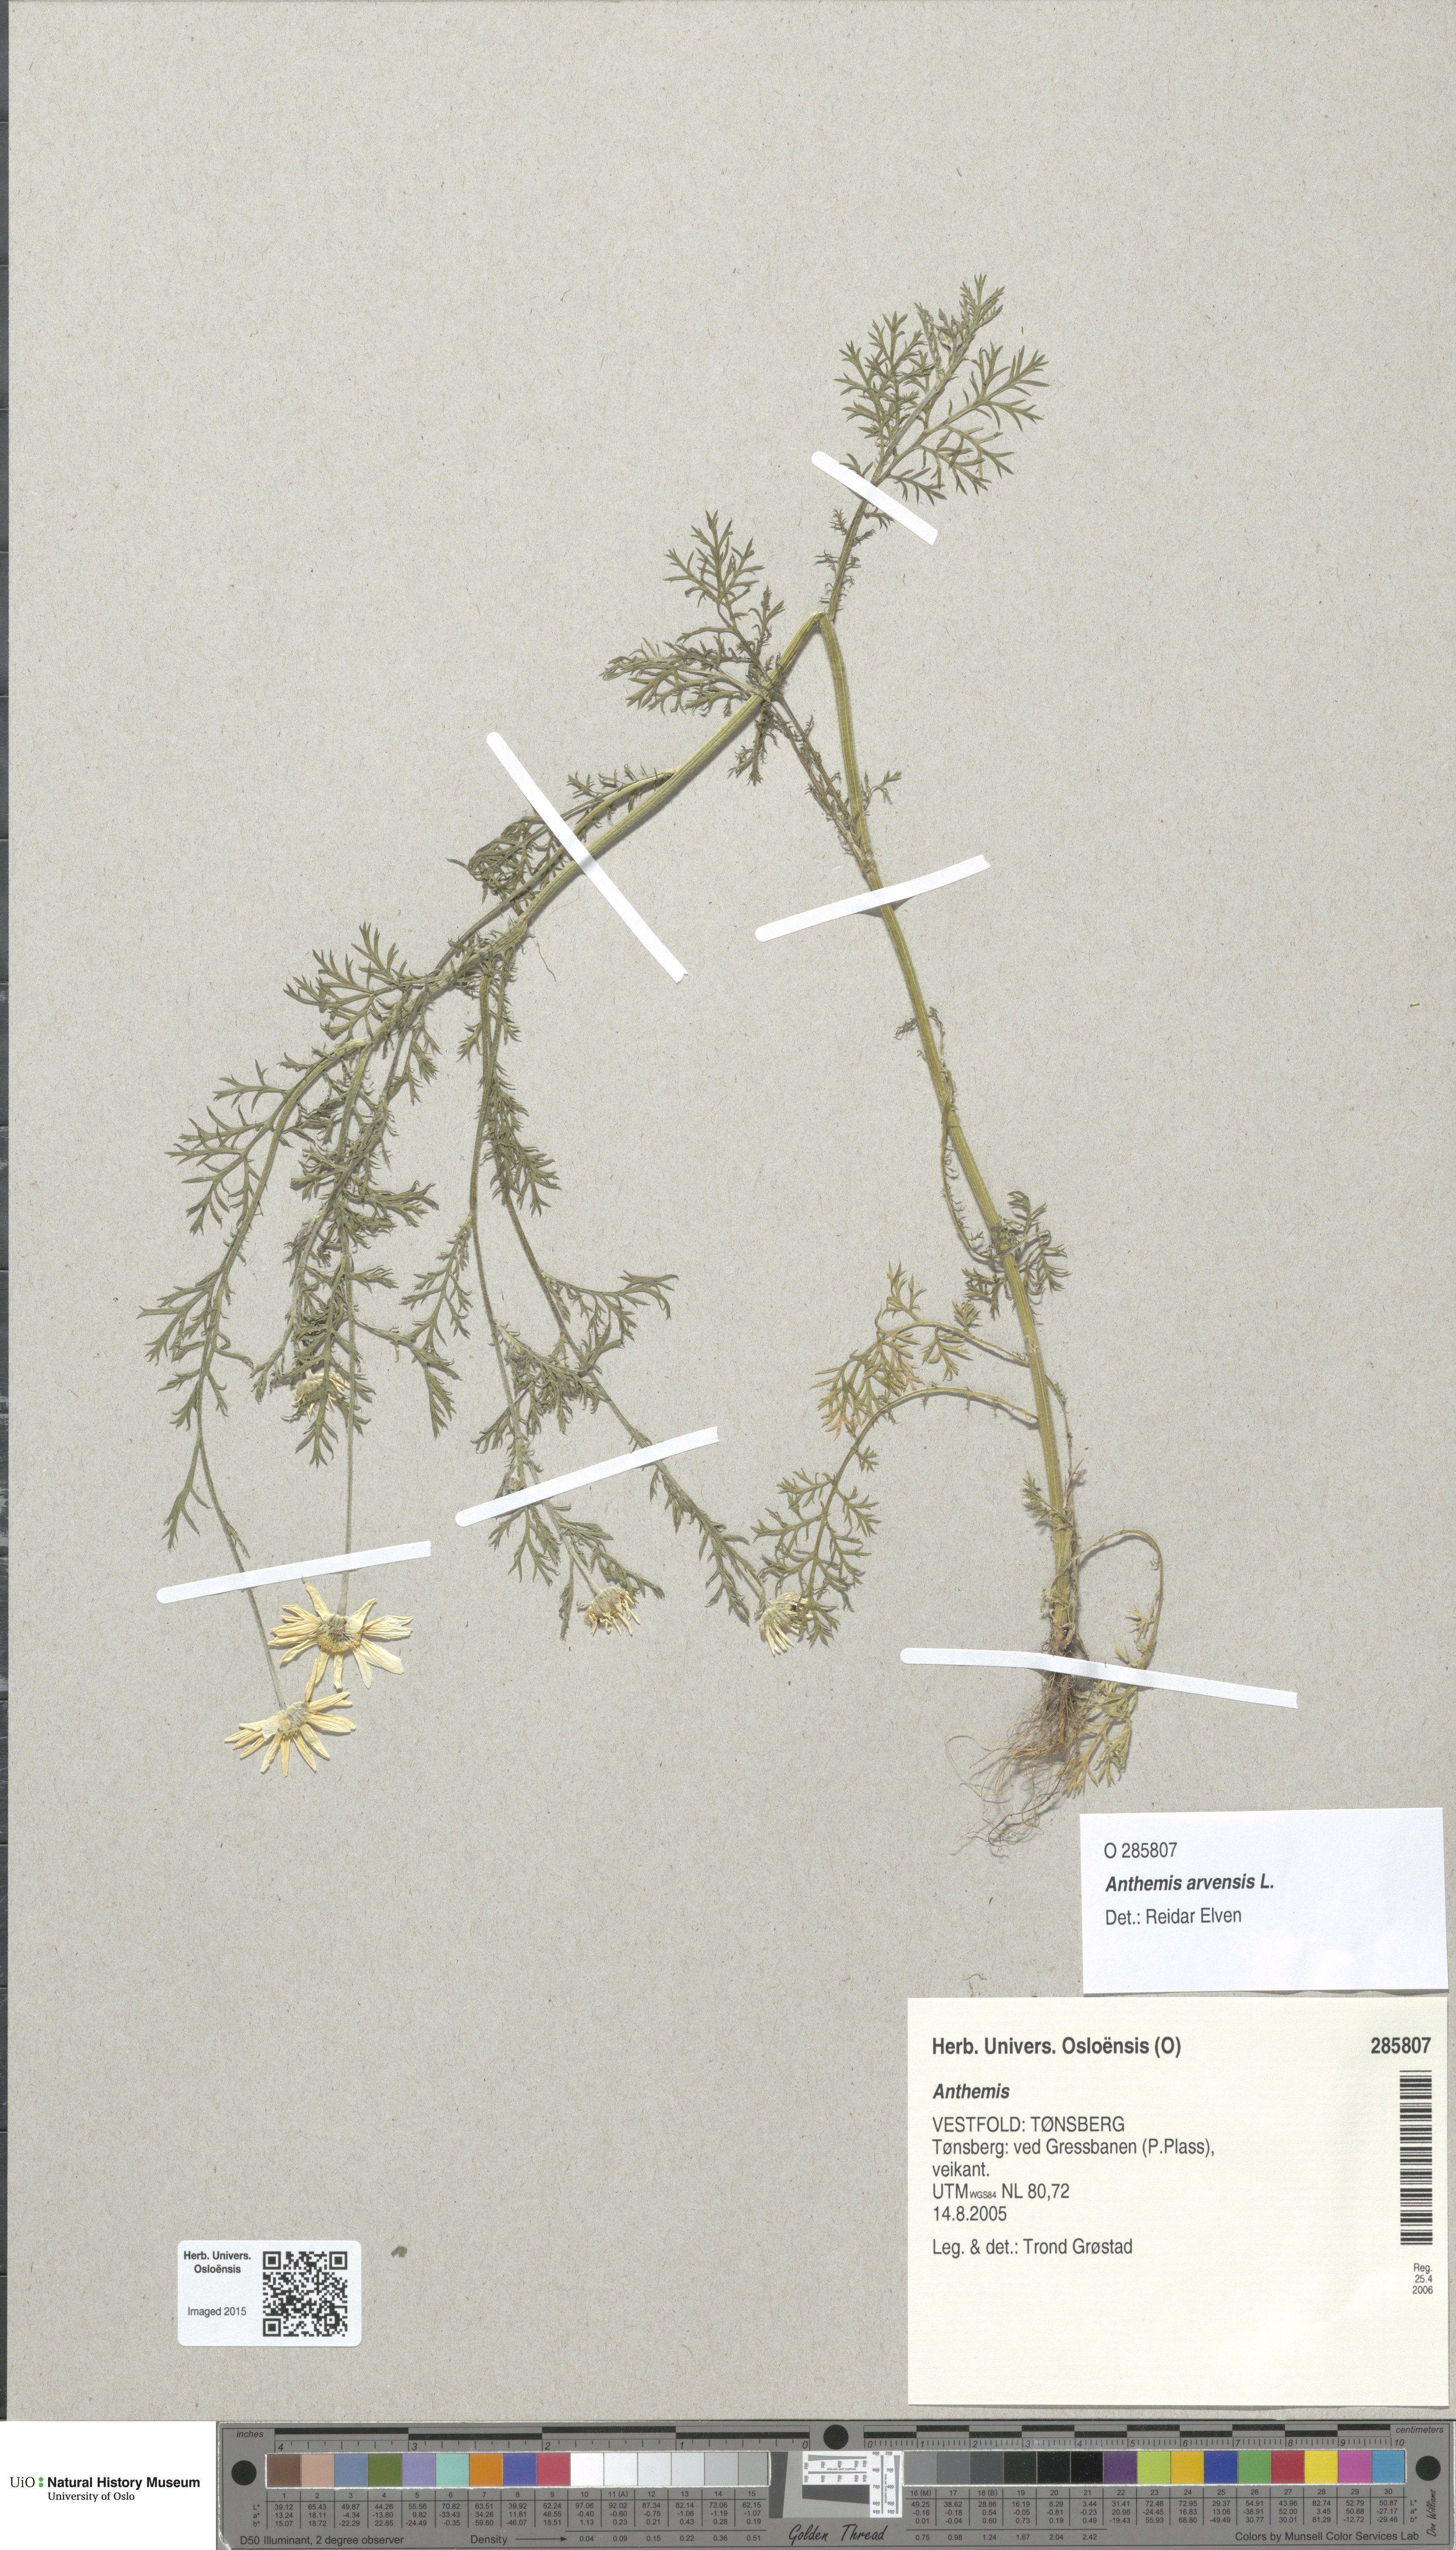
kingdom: Plantae
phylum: Tracheophyta
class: Magnoliopsida
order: Asterales
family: Asteraceae
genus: Anthemis
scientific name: Anthemis arvensis
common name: Corn chamomile
